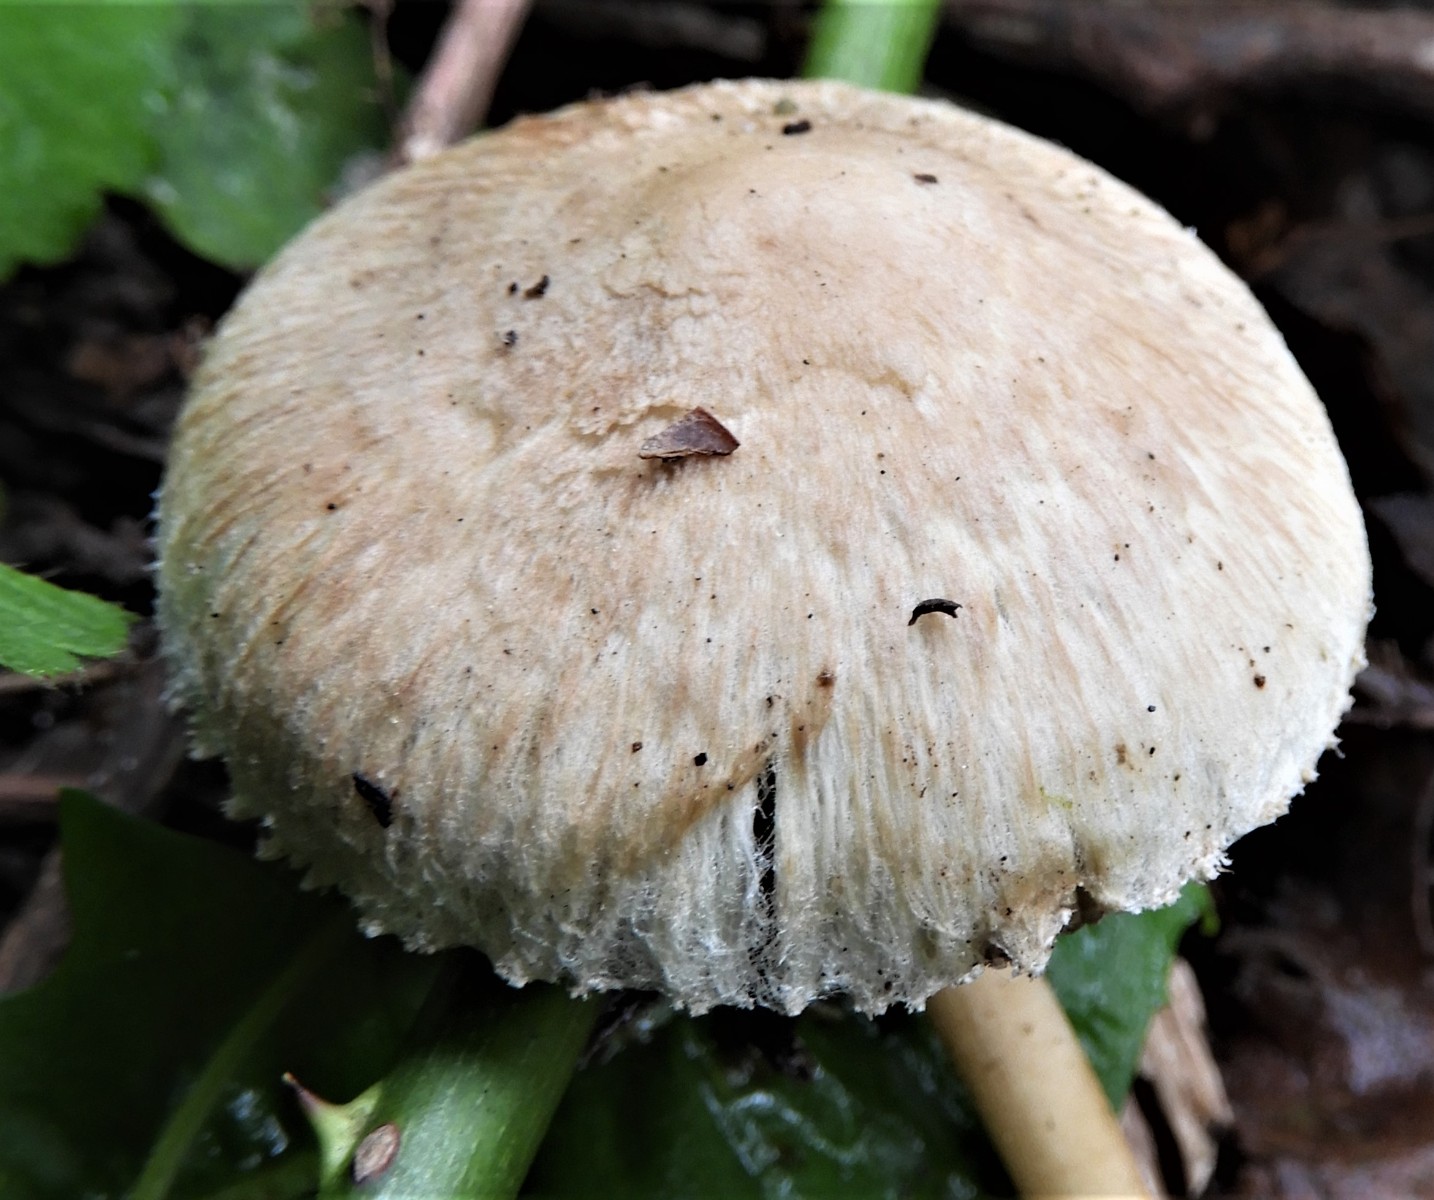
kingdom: Fungi
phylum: Basidiomycota
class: Agaricomycetes
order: Agaricales
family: Inocybaceae
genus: Inocybe
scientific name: Inocybe
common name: trævlhat
